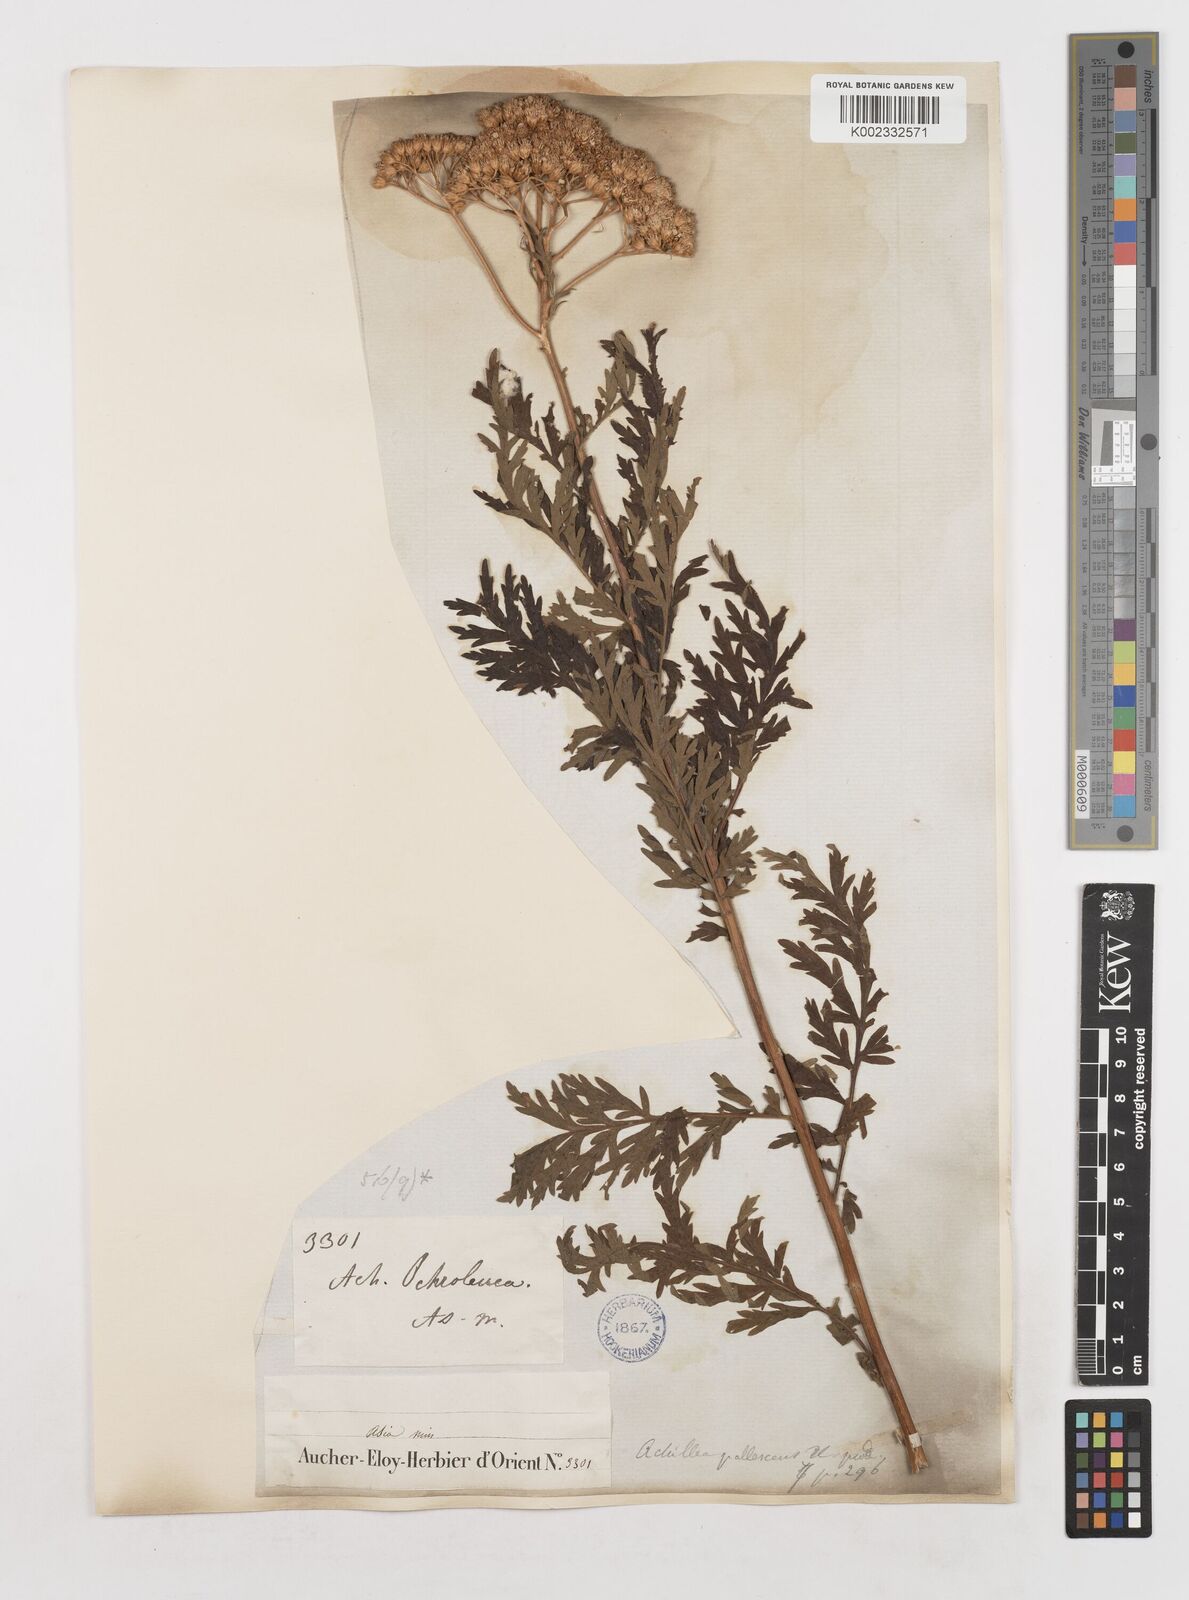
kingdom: Plantae
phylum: Tracheophyta
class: Magnoliopsida
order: Asterales
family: Asteraceae
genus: Achillea
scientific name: Achillea grandifolia
